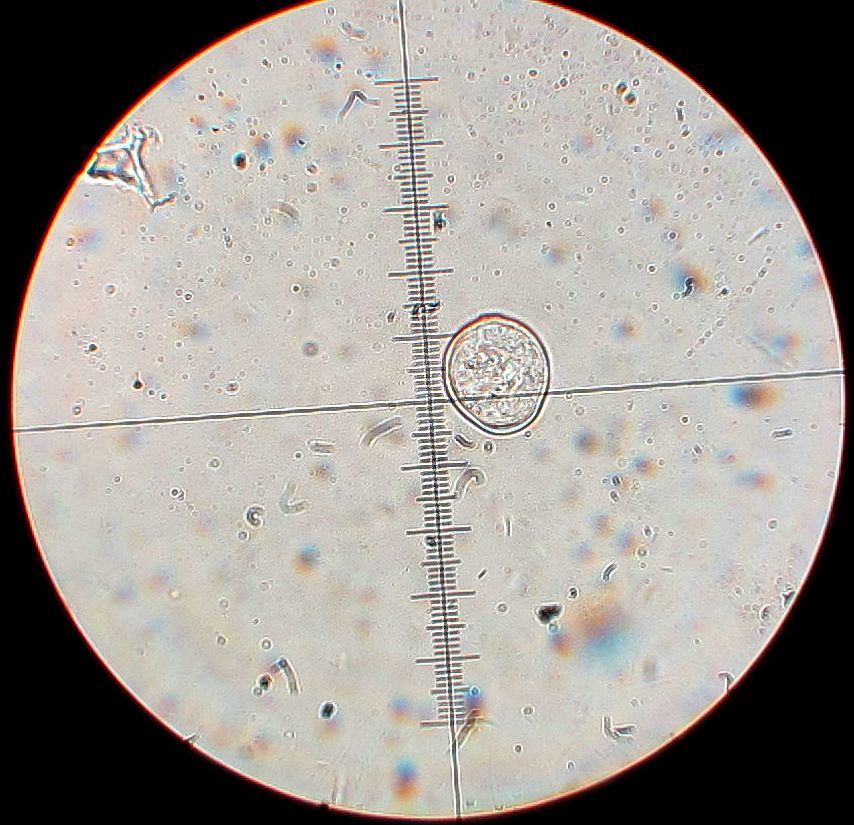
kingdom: Chromista
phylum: Oomycota
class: Peronosporea
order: Albuginales
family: Albuginaceae
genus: Albugo
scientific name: Albugo candida
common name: Crucifer white blister
